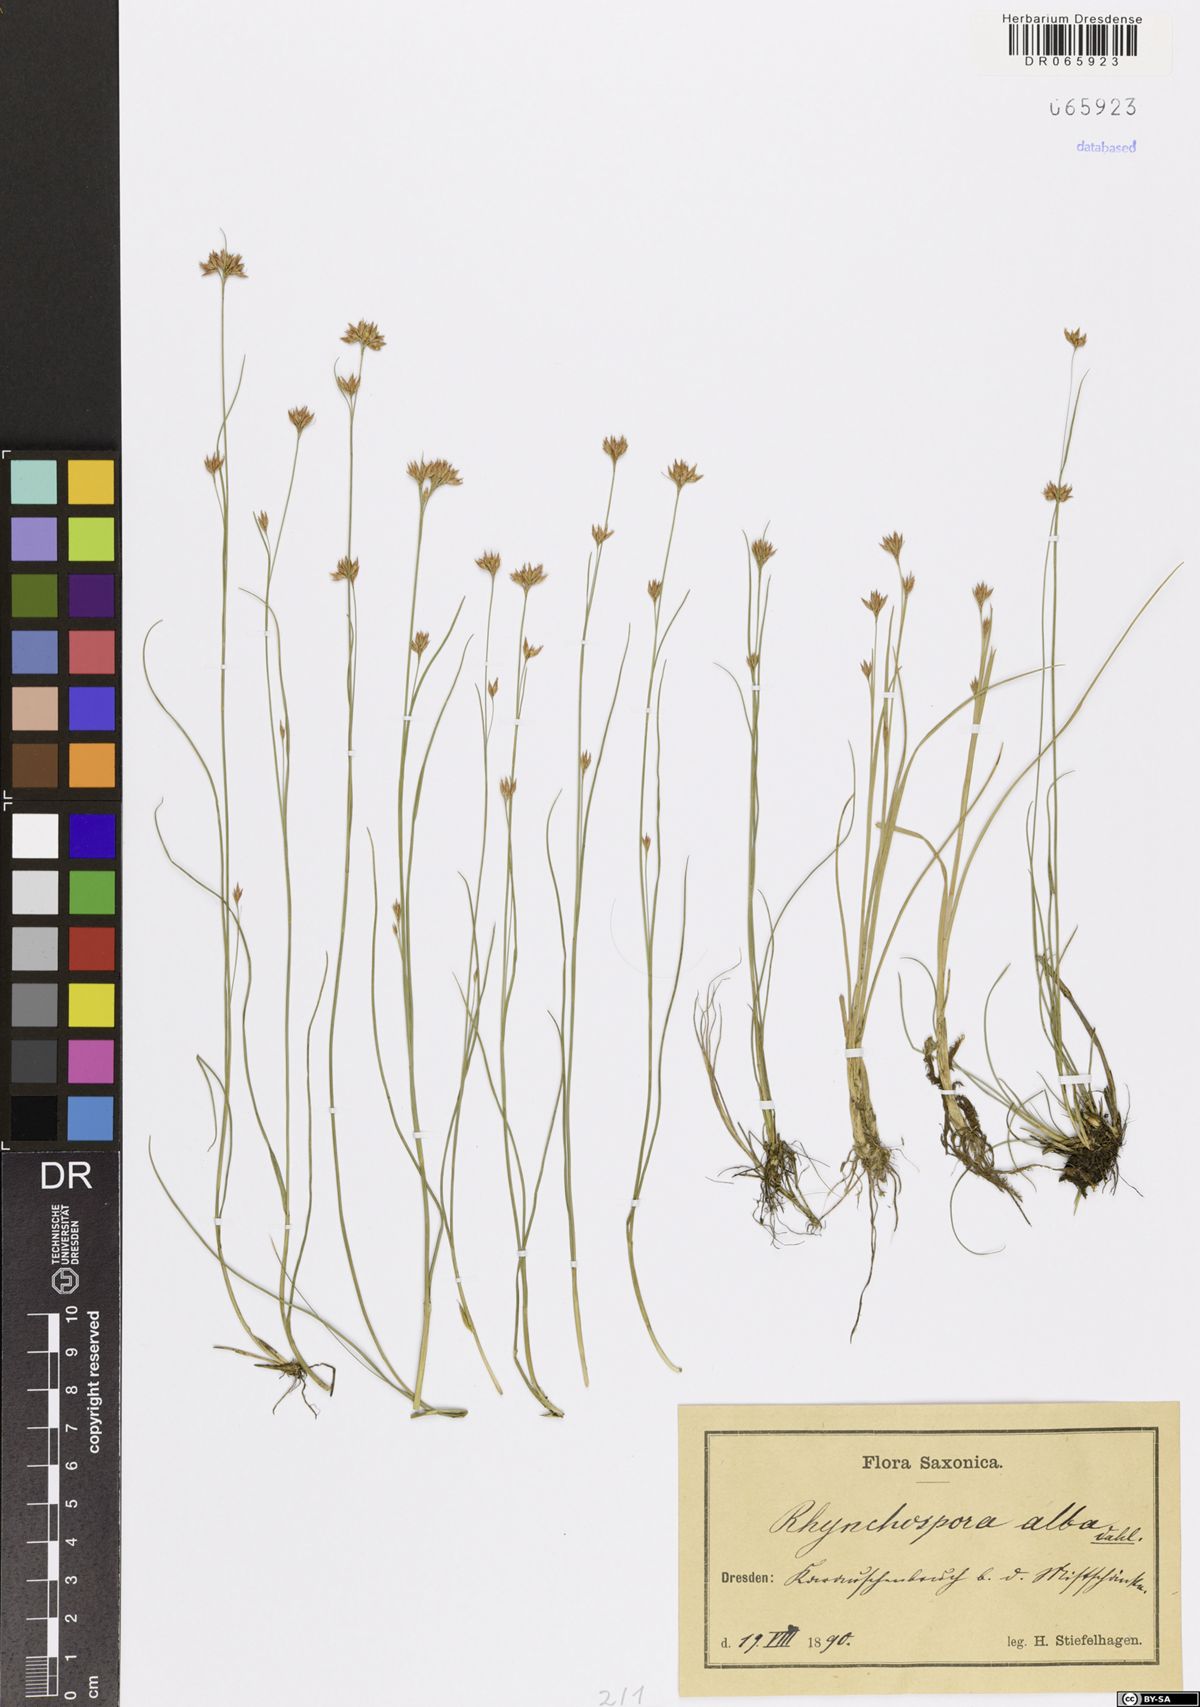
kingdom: Plantae
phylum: Tracheophyta
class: Liliopsida
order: Poales
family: Cyperaceae
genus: Rhynchospora
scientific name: Rhynchospora alba
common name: White beak-sedge
